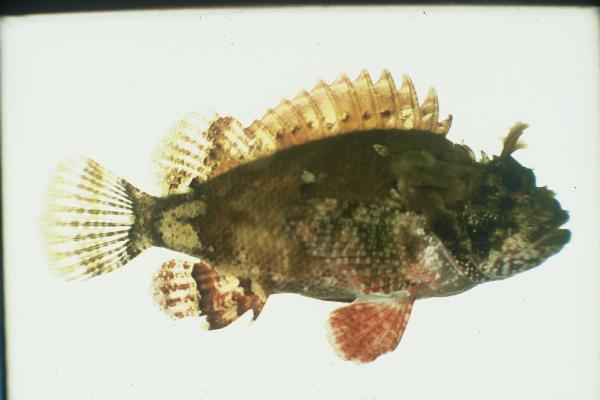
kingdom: Animalia
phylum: Chordata
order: Scorpaeniformes
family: Scorpaenidae
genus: Parascorpaena
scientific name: Parascorpaena mossambica
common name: Mozambique scorpionfish
